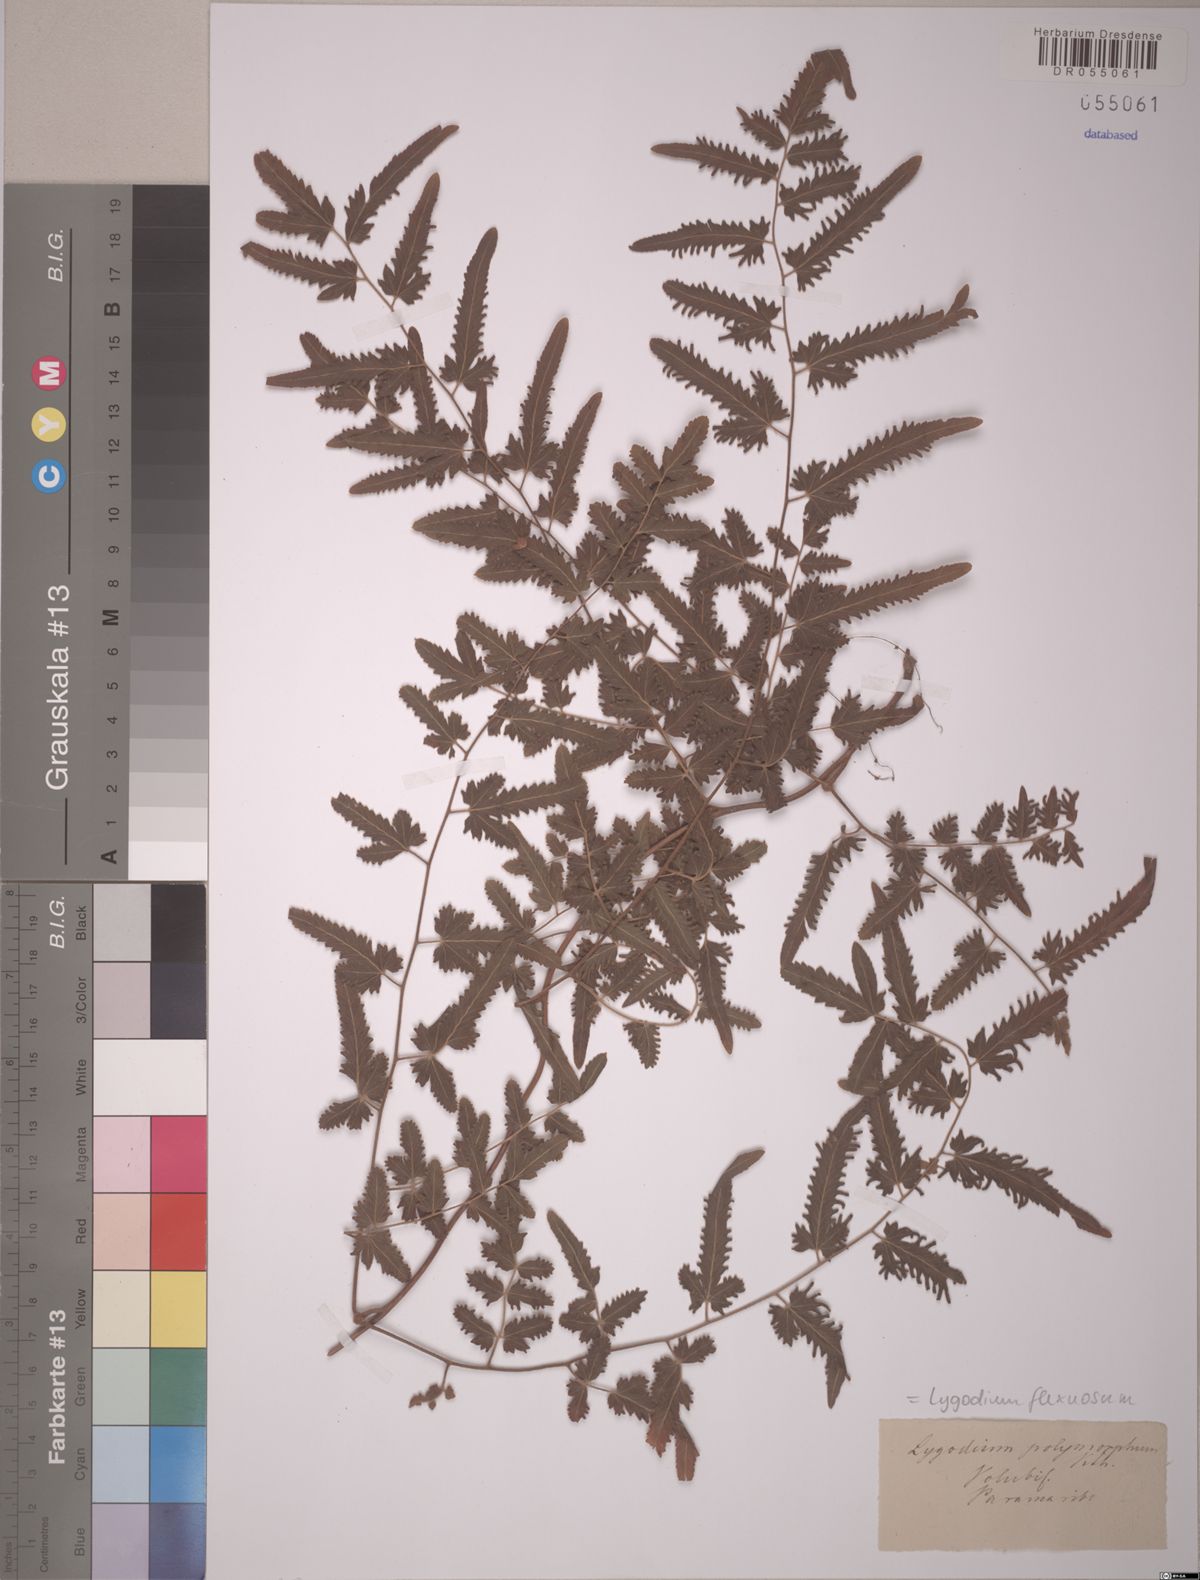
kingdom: Plantae
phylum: Tracheophyta
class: Polypodiopsida
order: Schizaeales
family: Lygodiaceae
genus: Lygodium
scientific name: Lygodium flexuosum
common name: Maidenhair creeper
